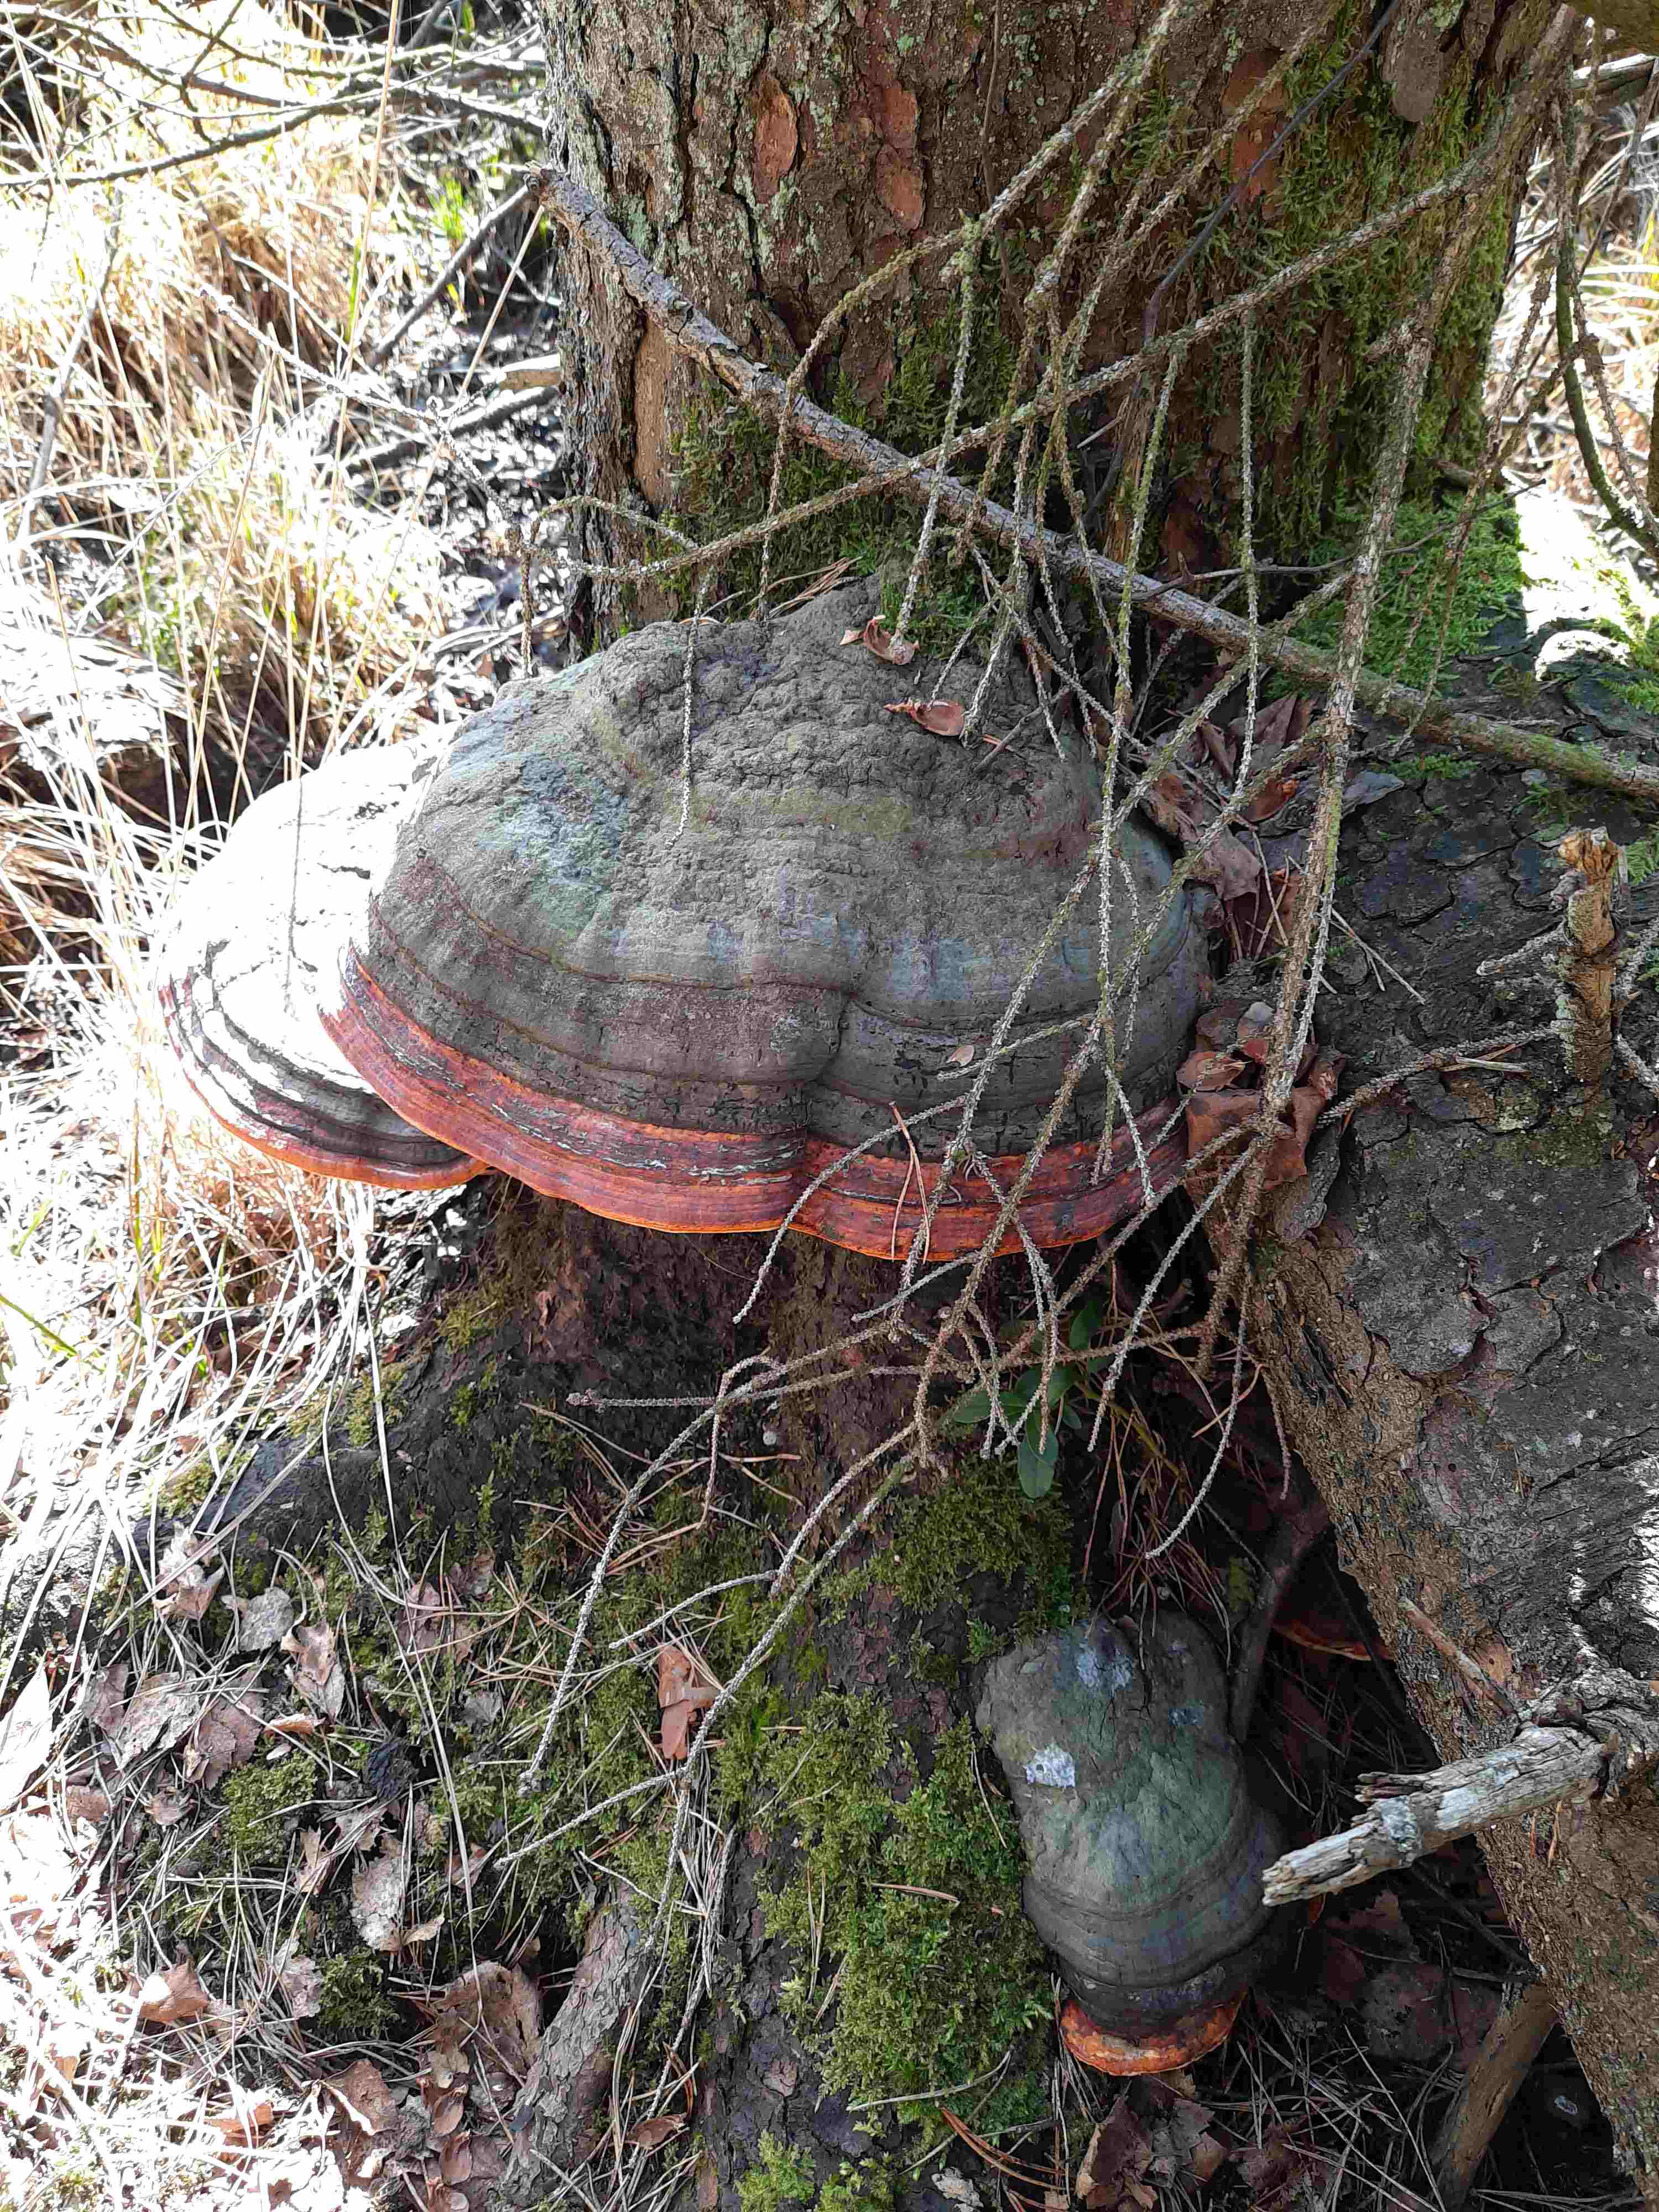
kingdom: Fungi
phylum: Basidiomycota
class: Agaricomycetes
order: Polyporales
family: Fomitopsidaceae
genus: Fomitopsis
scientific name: Fomitopsis pinicola
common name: randbæltet hovporesvamp
